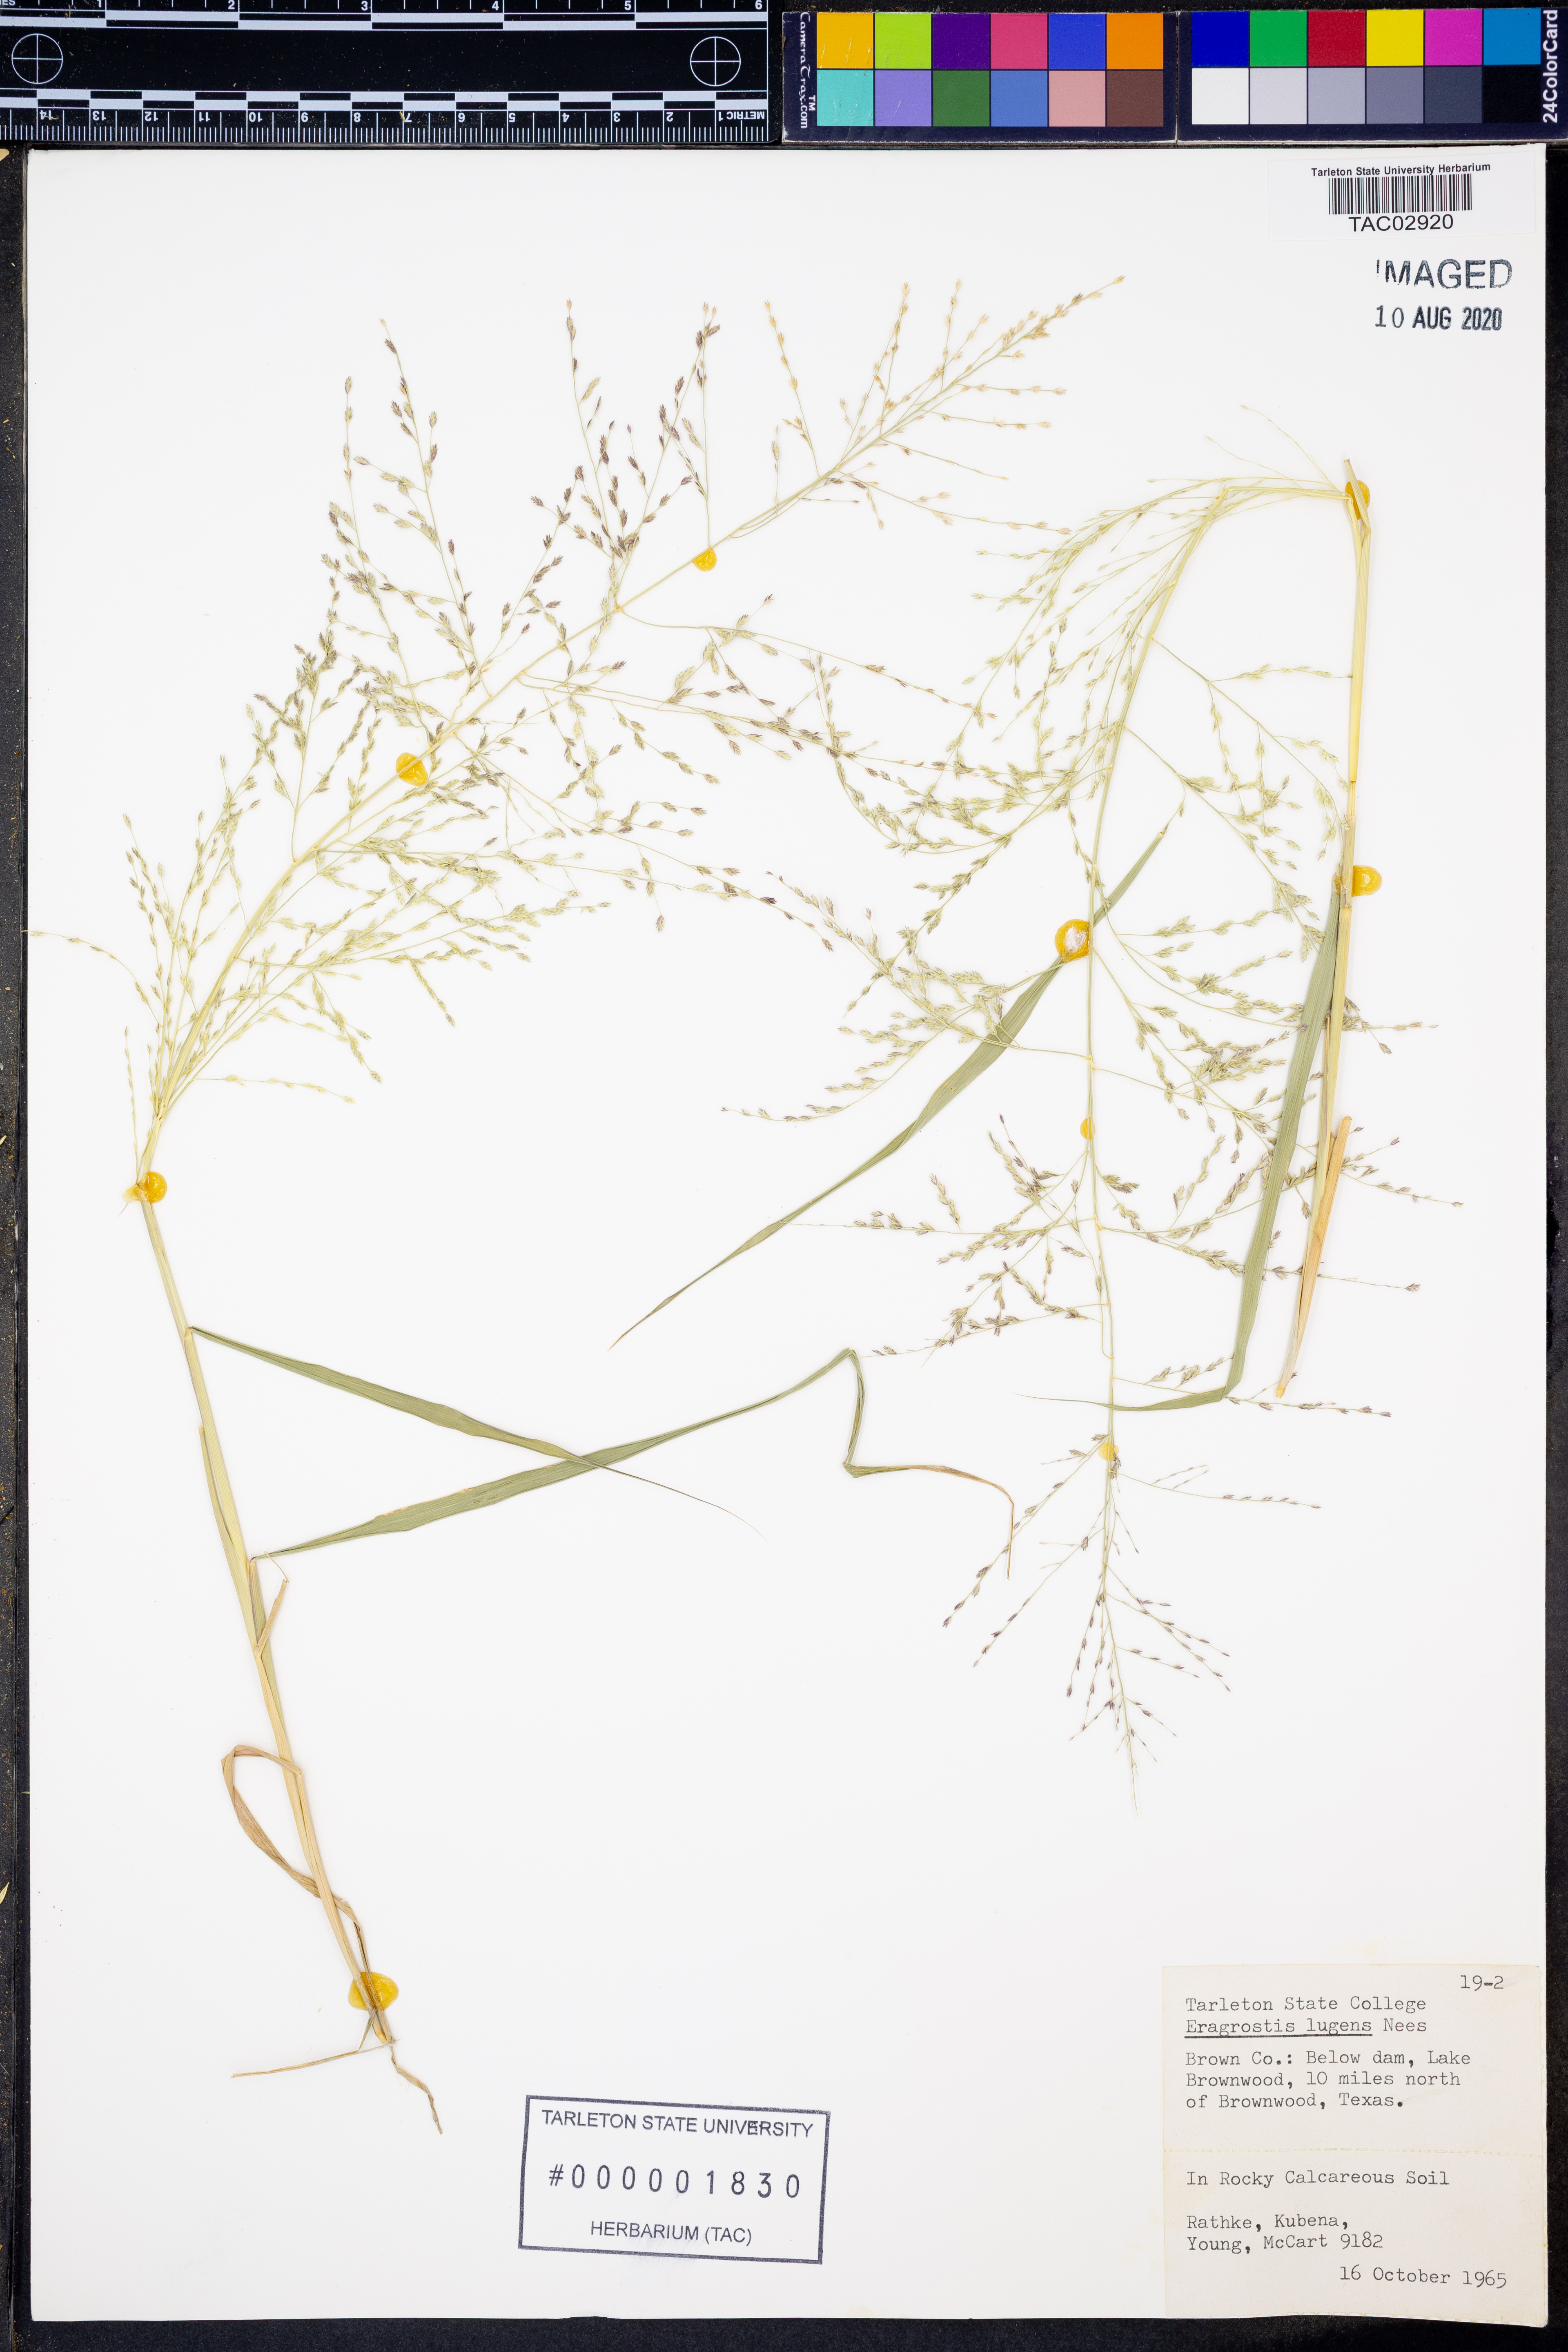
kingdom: Plantae
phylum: Tracheophyta
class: Liliopsida
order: Poales
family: Poaceae
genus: Eragrostis
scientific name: Eragrostis capillaris
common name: Hair-like lovegrass
